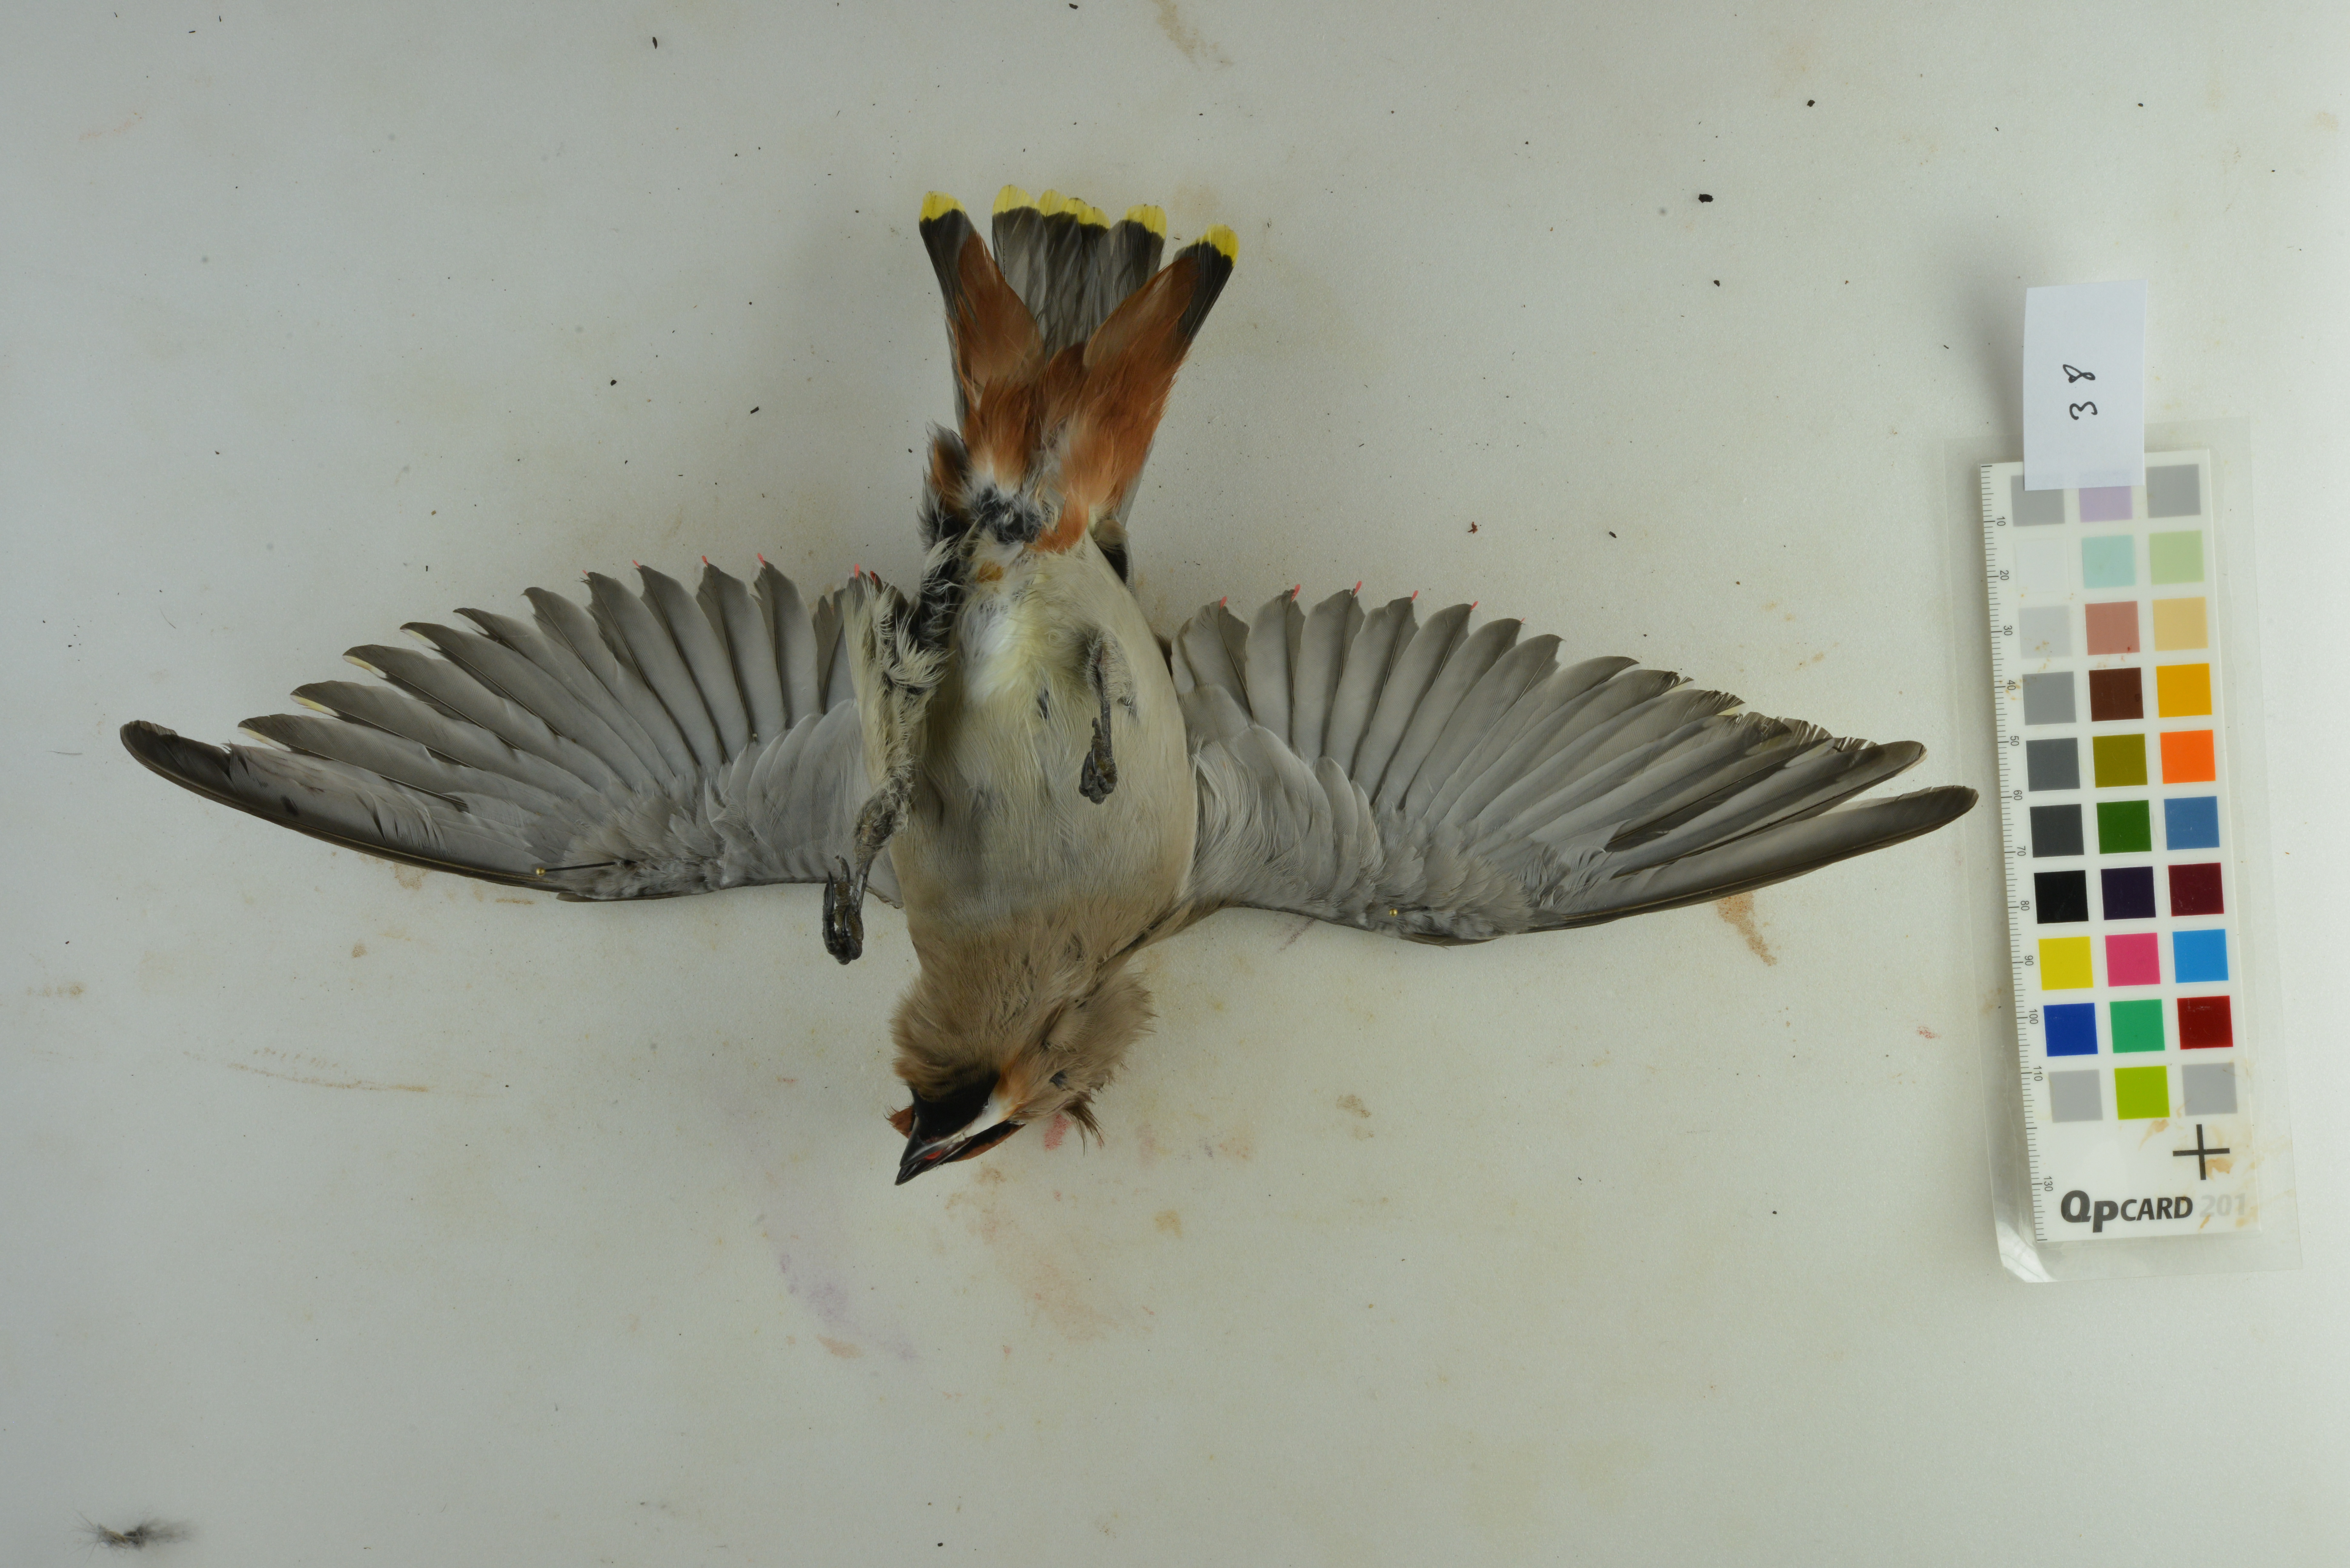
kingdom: Animalia
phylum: Chordata
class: Aves
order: Passeriformes
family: Bombycillidae
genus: Bombycilla
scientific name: Bombycilla garrulus
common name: Bohemian waxwing
